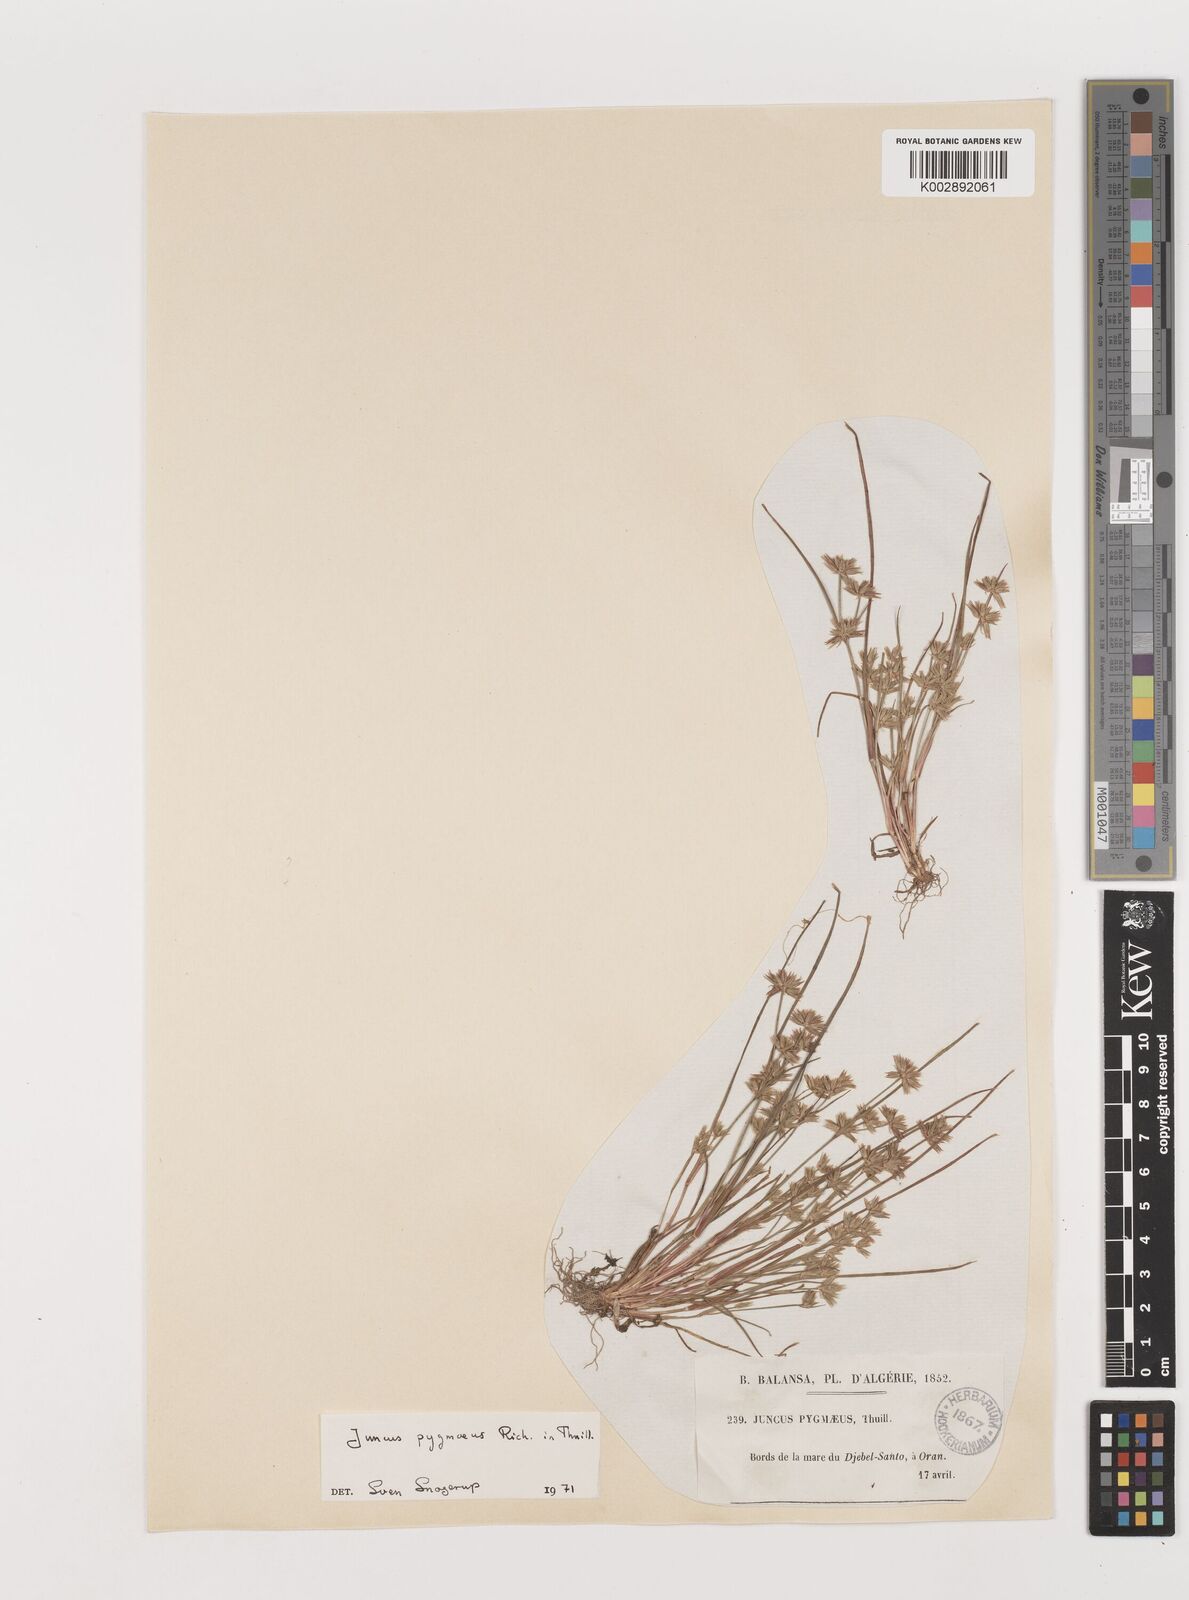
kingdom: Plantae
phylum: Tracheophyta
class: Liliopsida
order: Poales
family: Juncaceae
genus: Juncus
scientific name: Juncus pygmaeus
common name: Pigmy rush
